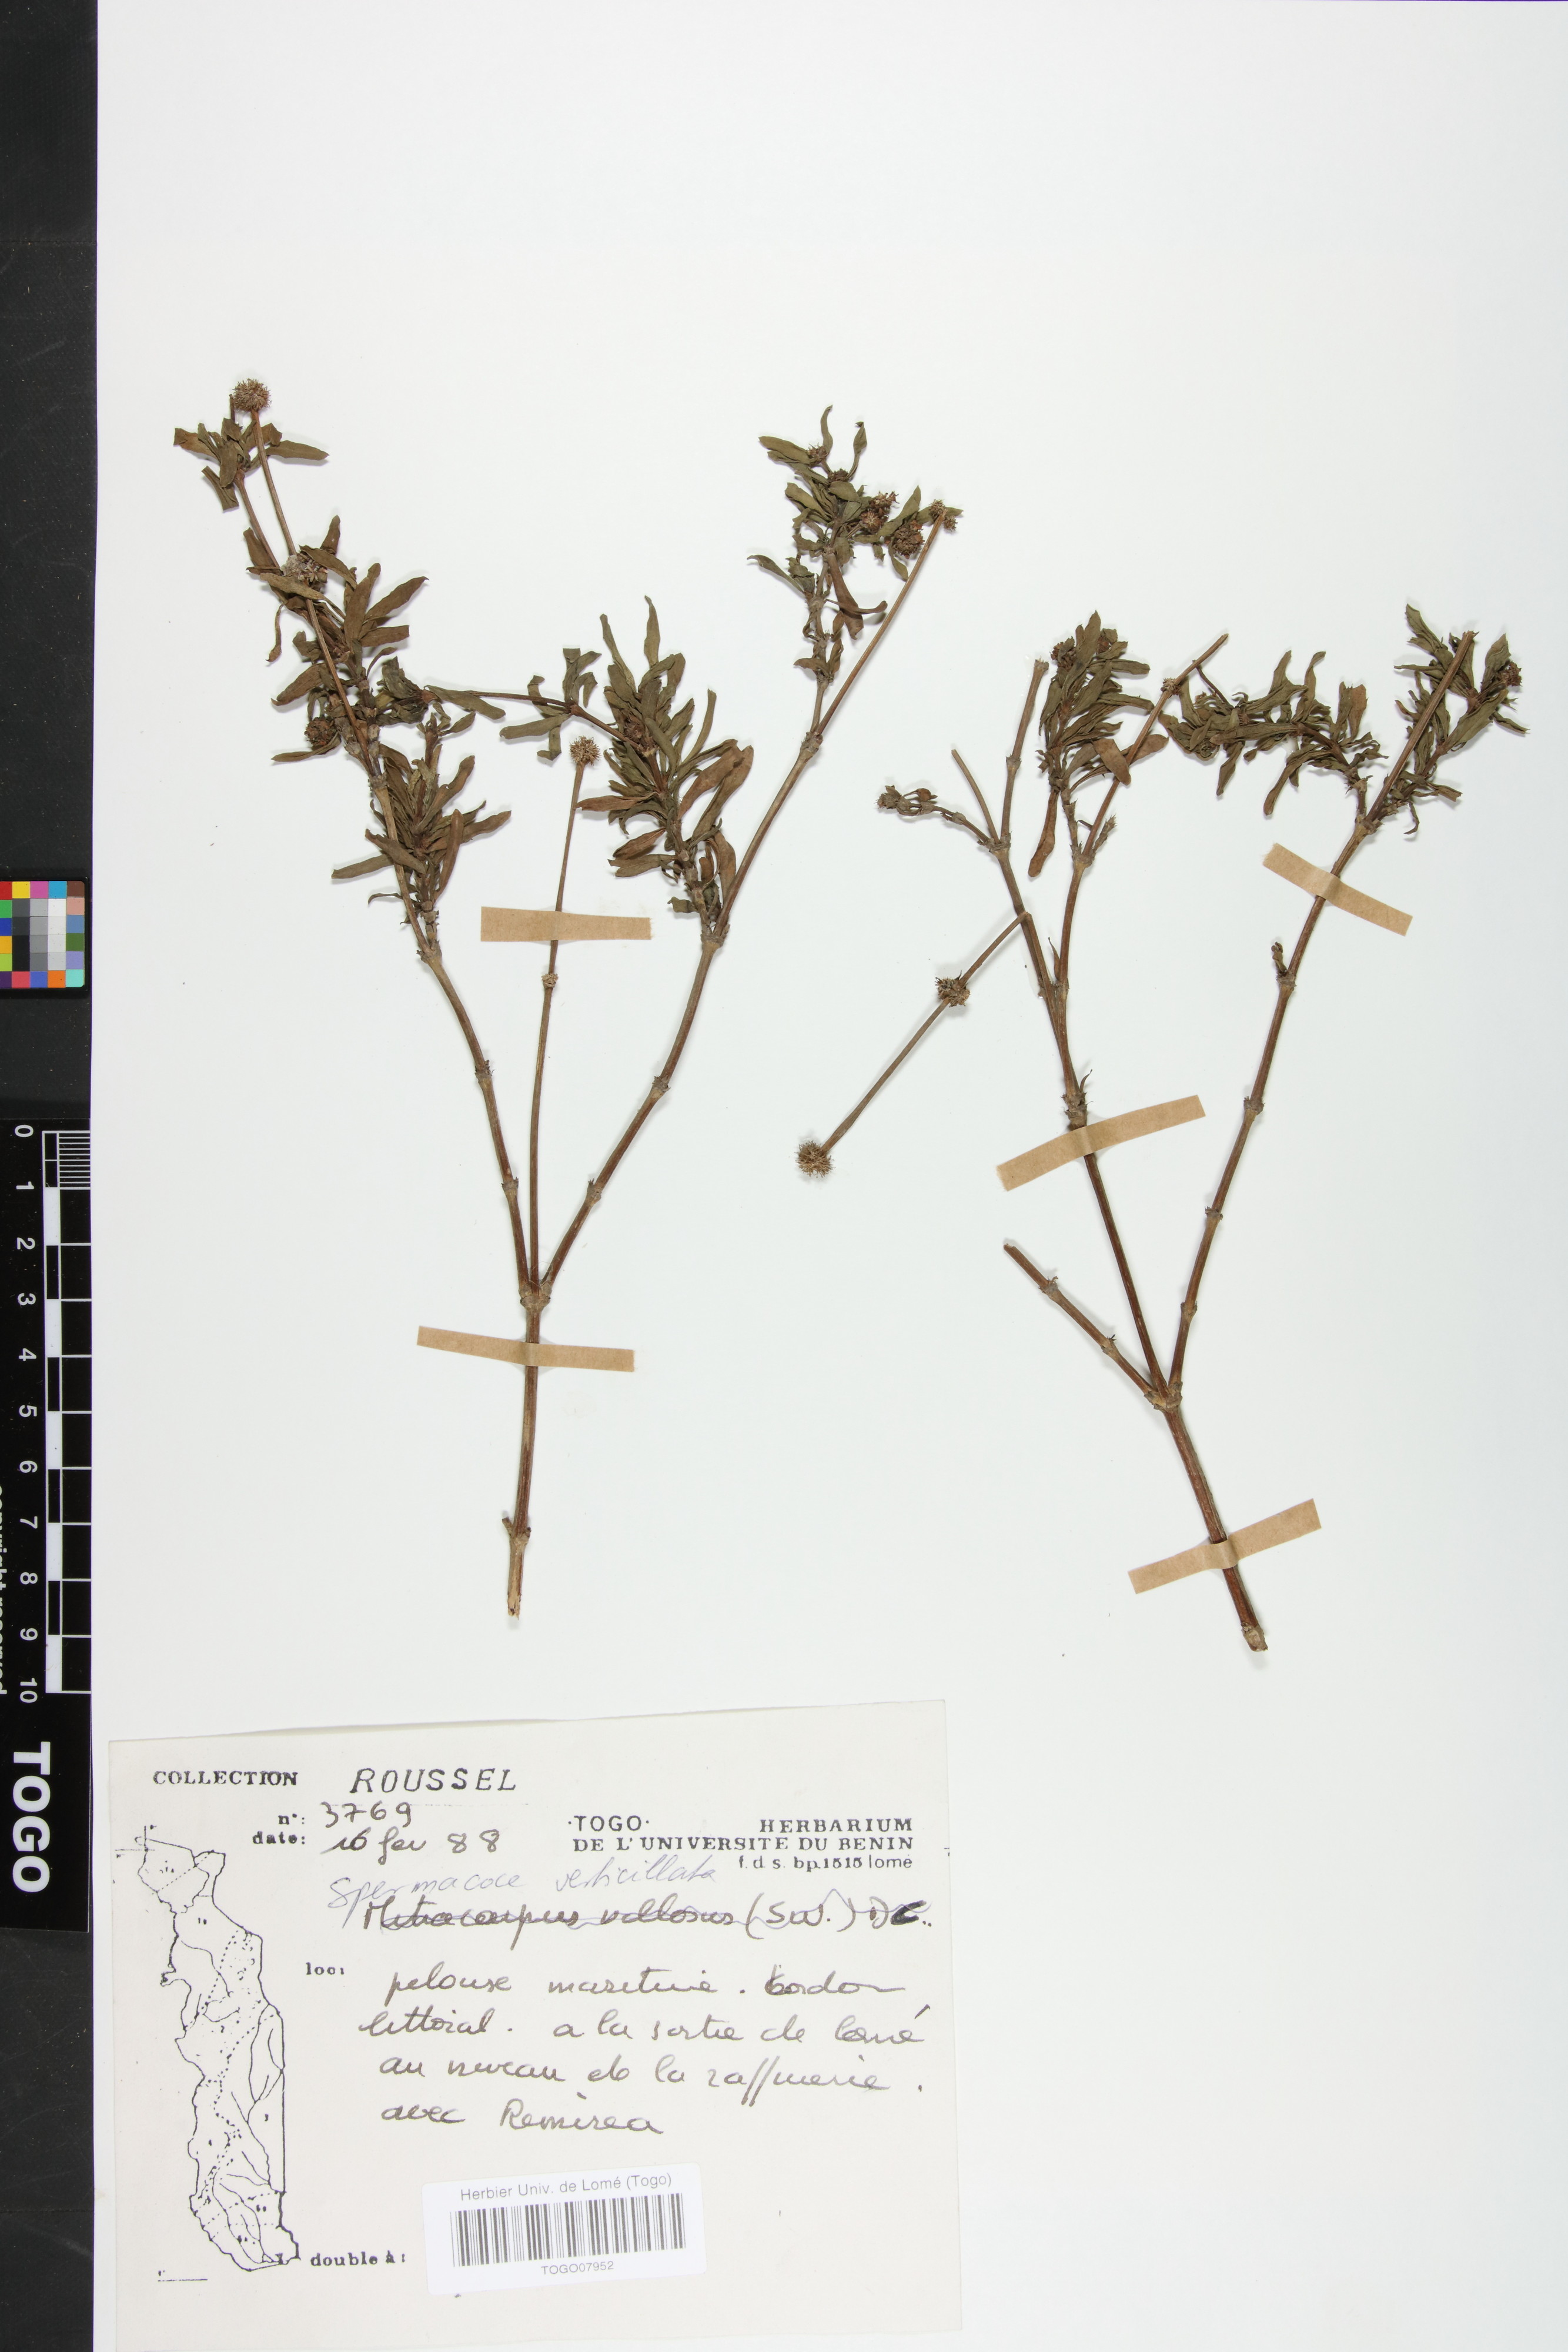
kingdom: Plantae
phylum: Tracheophyta
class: Magnoliopsida
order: Gentianales
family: Rubiaceae
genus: Spermacoce
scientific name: Spermacoce verticillata
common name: Shrubby false buttonweed
